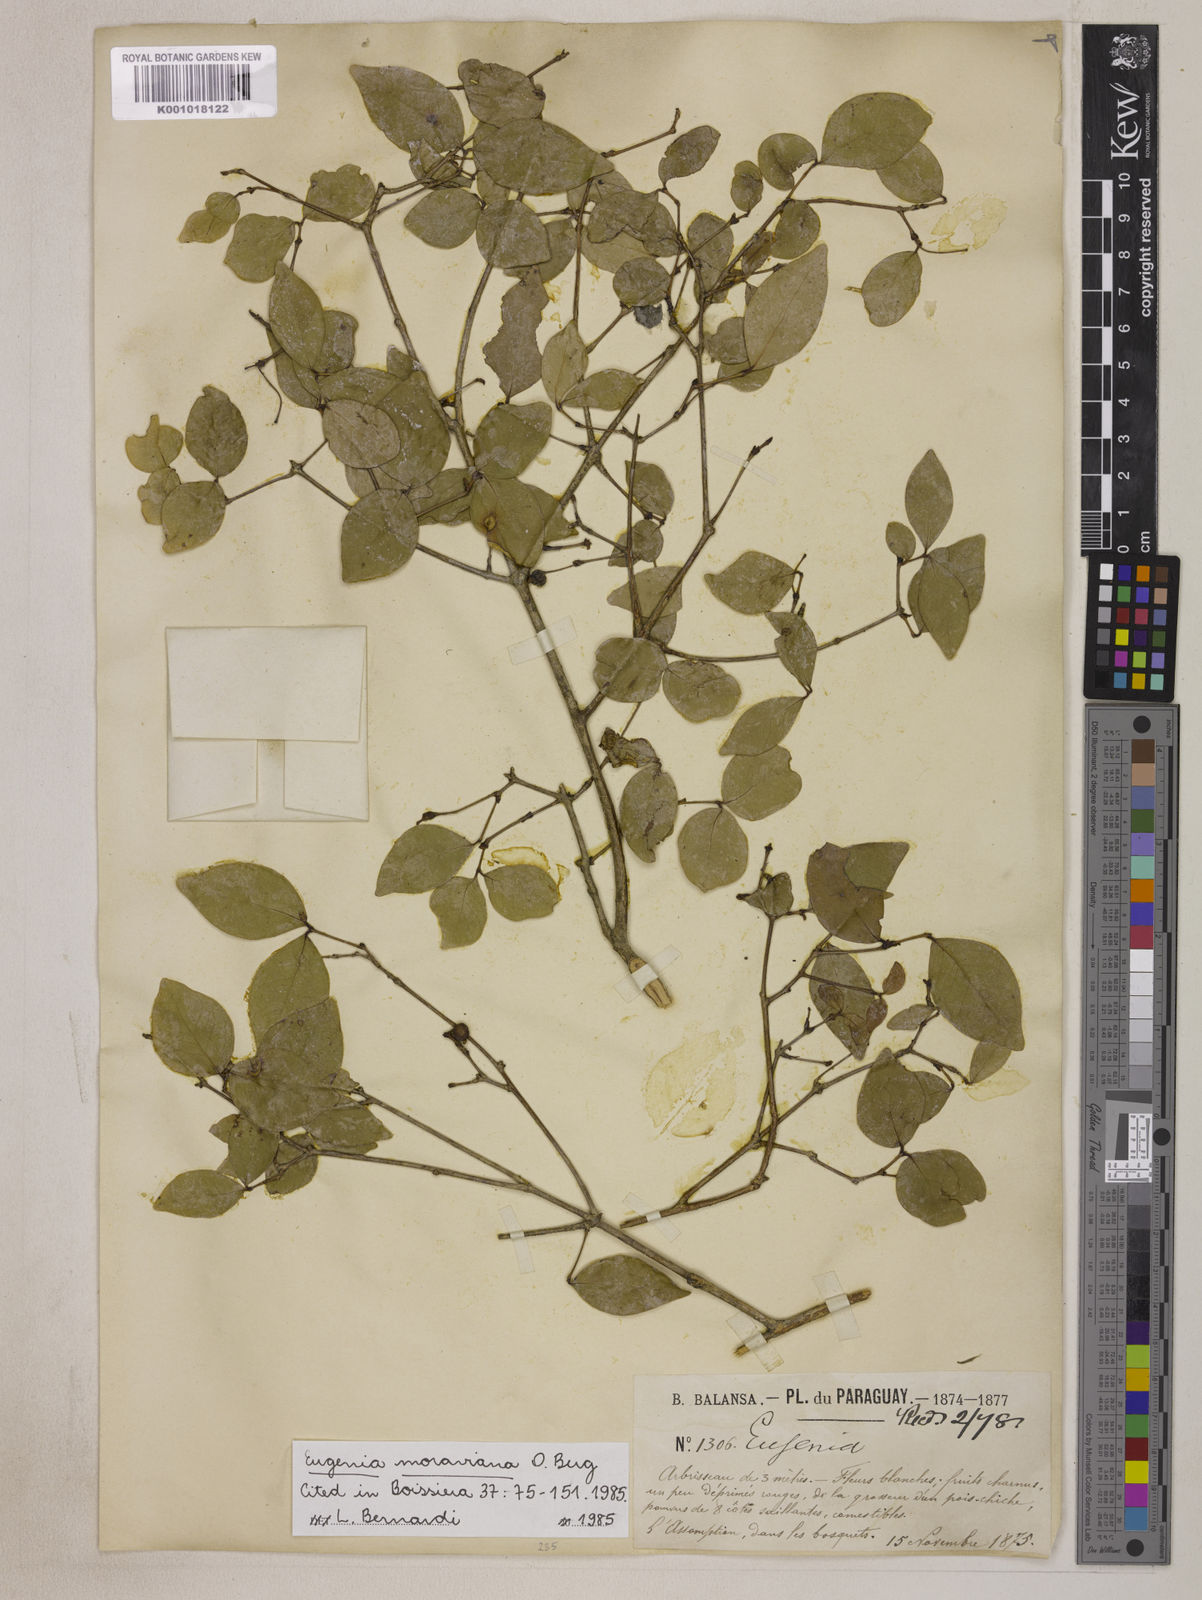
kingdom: Plantae
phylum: Tracheophyta
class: Magnoliopsida
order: Myrtales
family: Myrtaceae
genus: Eugenia
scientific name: Eugenia modesta
